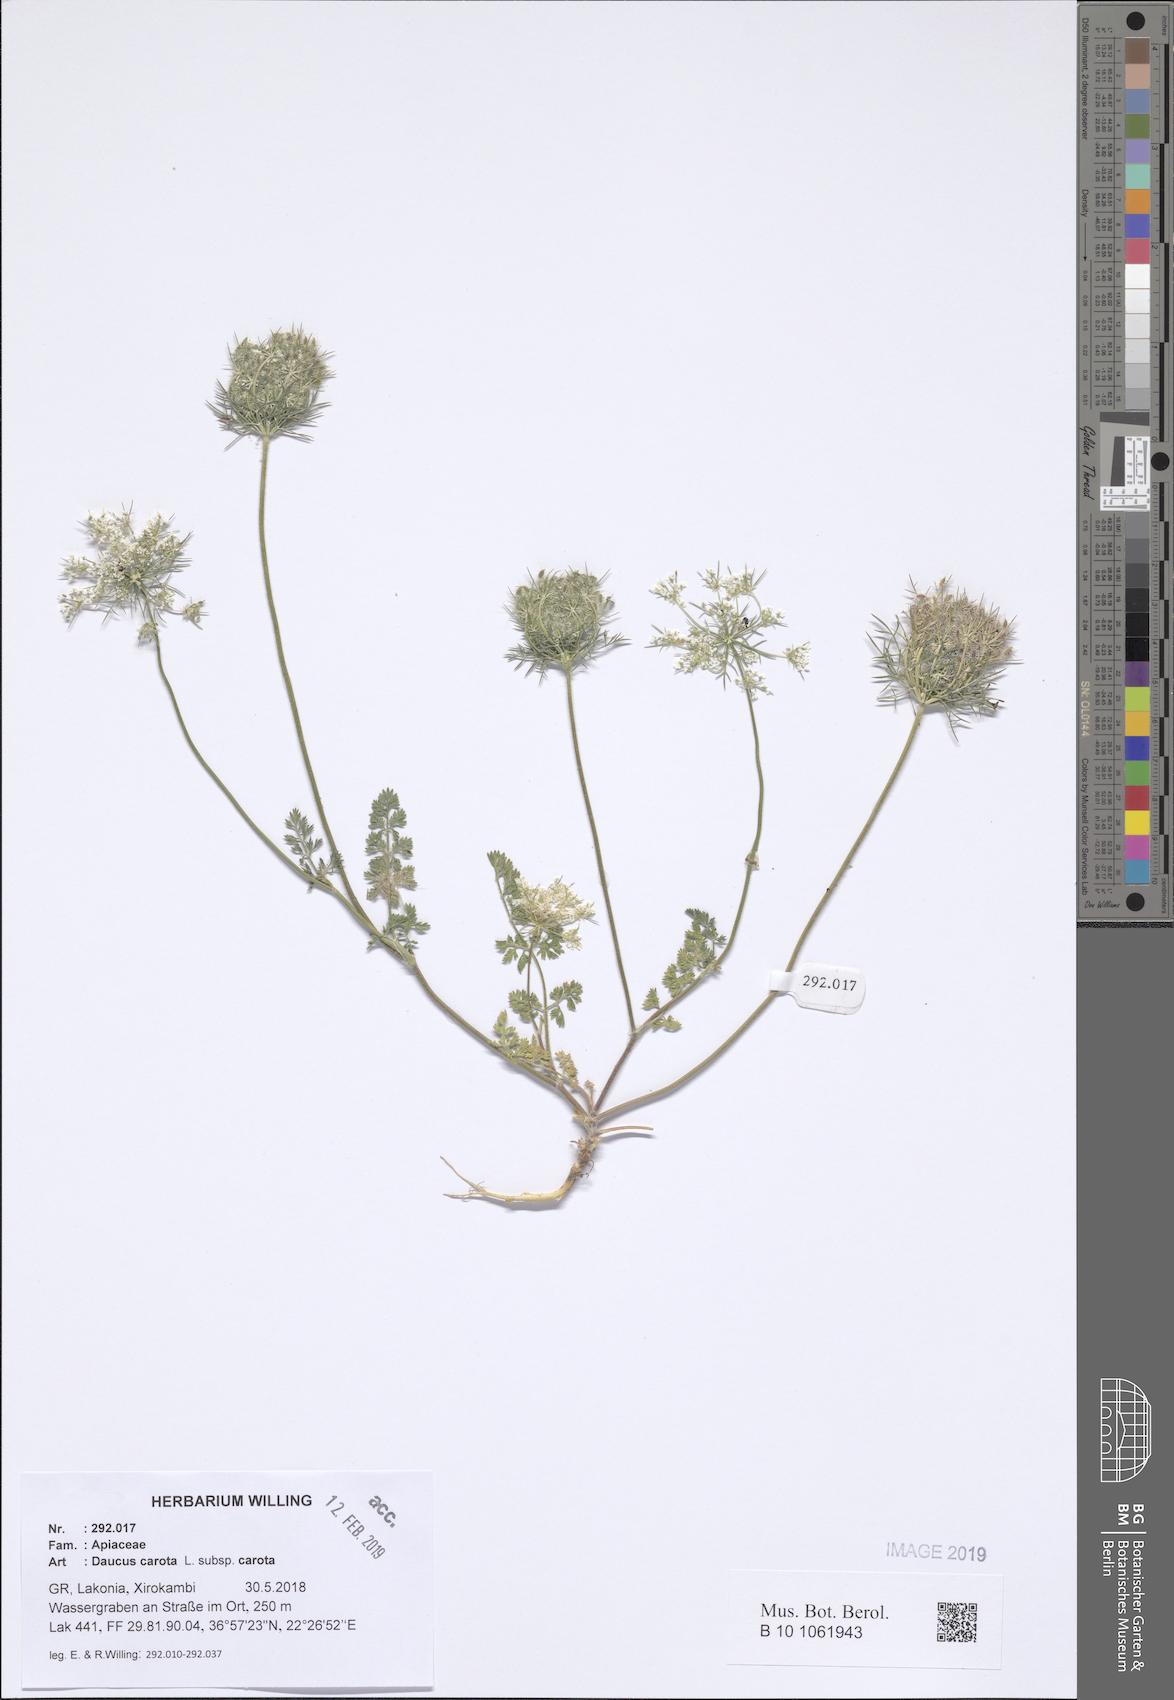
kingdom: Plantae
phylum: Tracheophyta
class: Magnoliopsida
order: Apiales
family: Apiaceae
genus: Daucus
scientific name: Daucus carota
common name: Wild carrot
